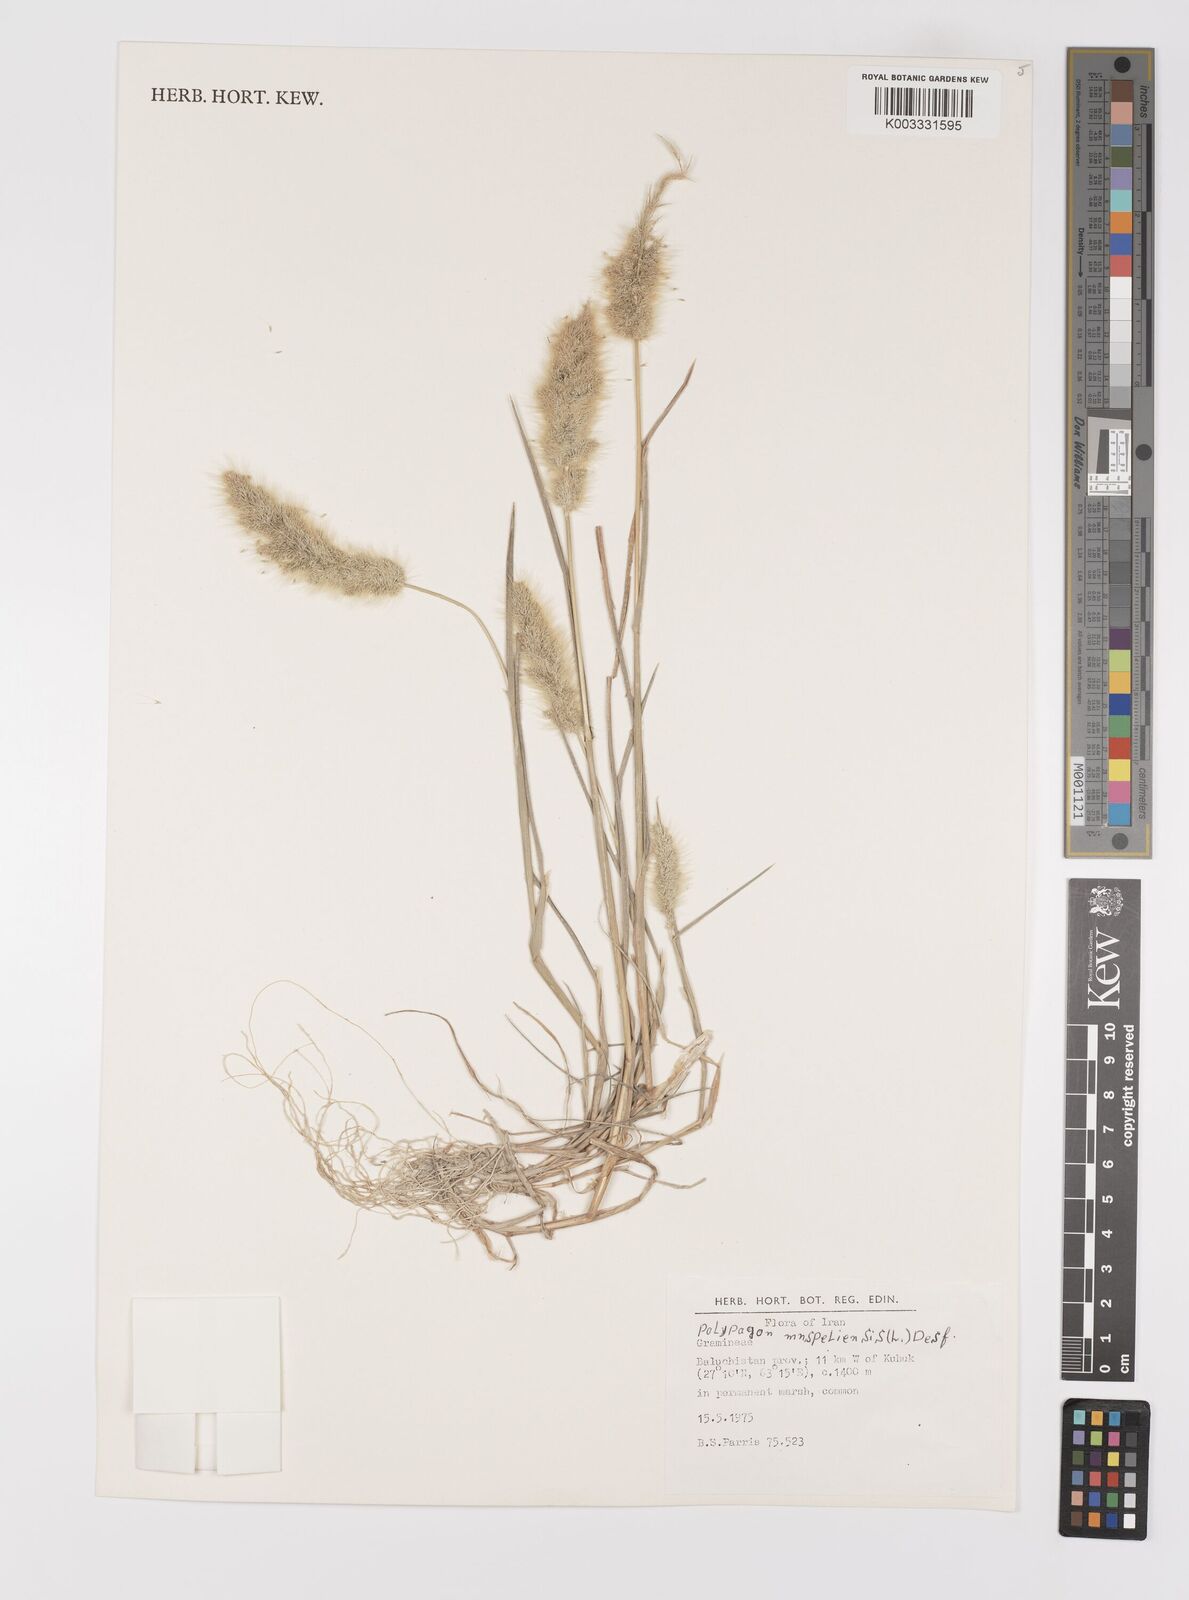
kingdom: Plantae
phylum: Tracheophyta
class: Liliopsida
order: Poales
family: Poaceae
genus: Polypogon
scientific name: Polypogon monspeliensis
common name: Annual rabbitsfoot grass
